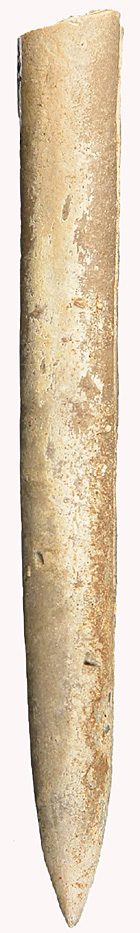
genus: Pachybelemnopsis
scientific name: Pachybelemnopsis
